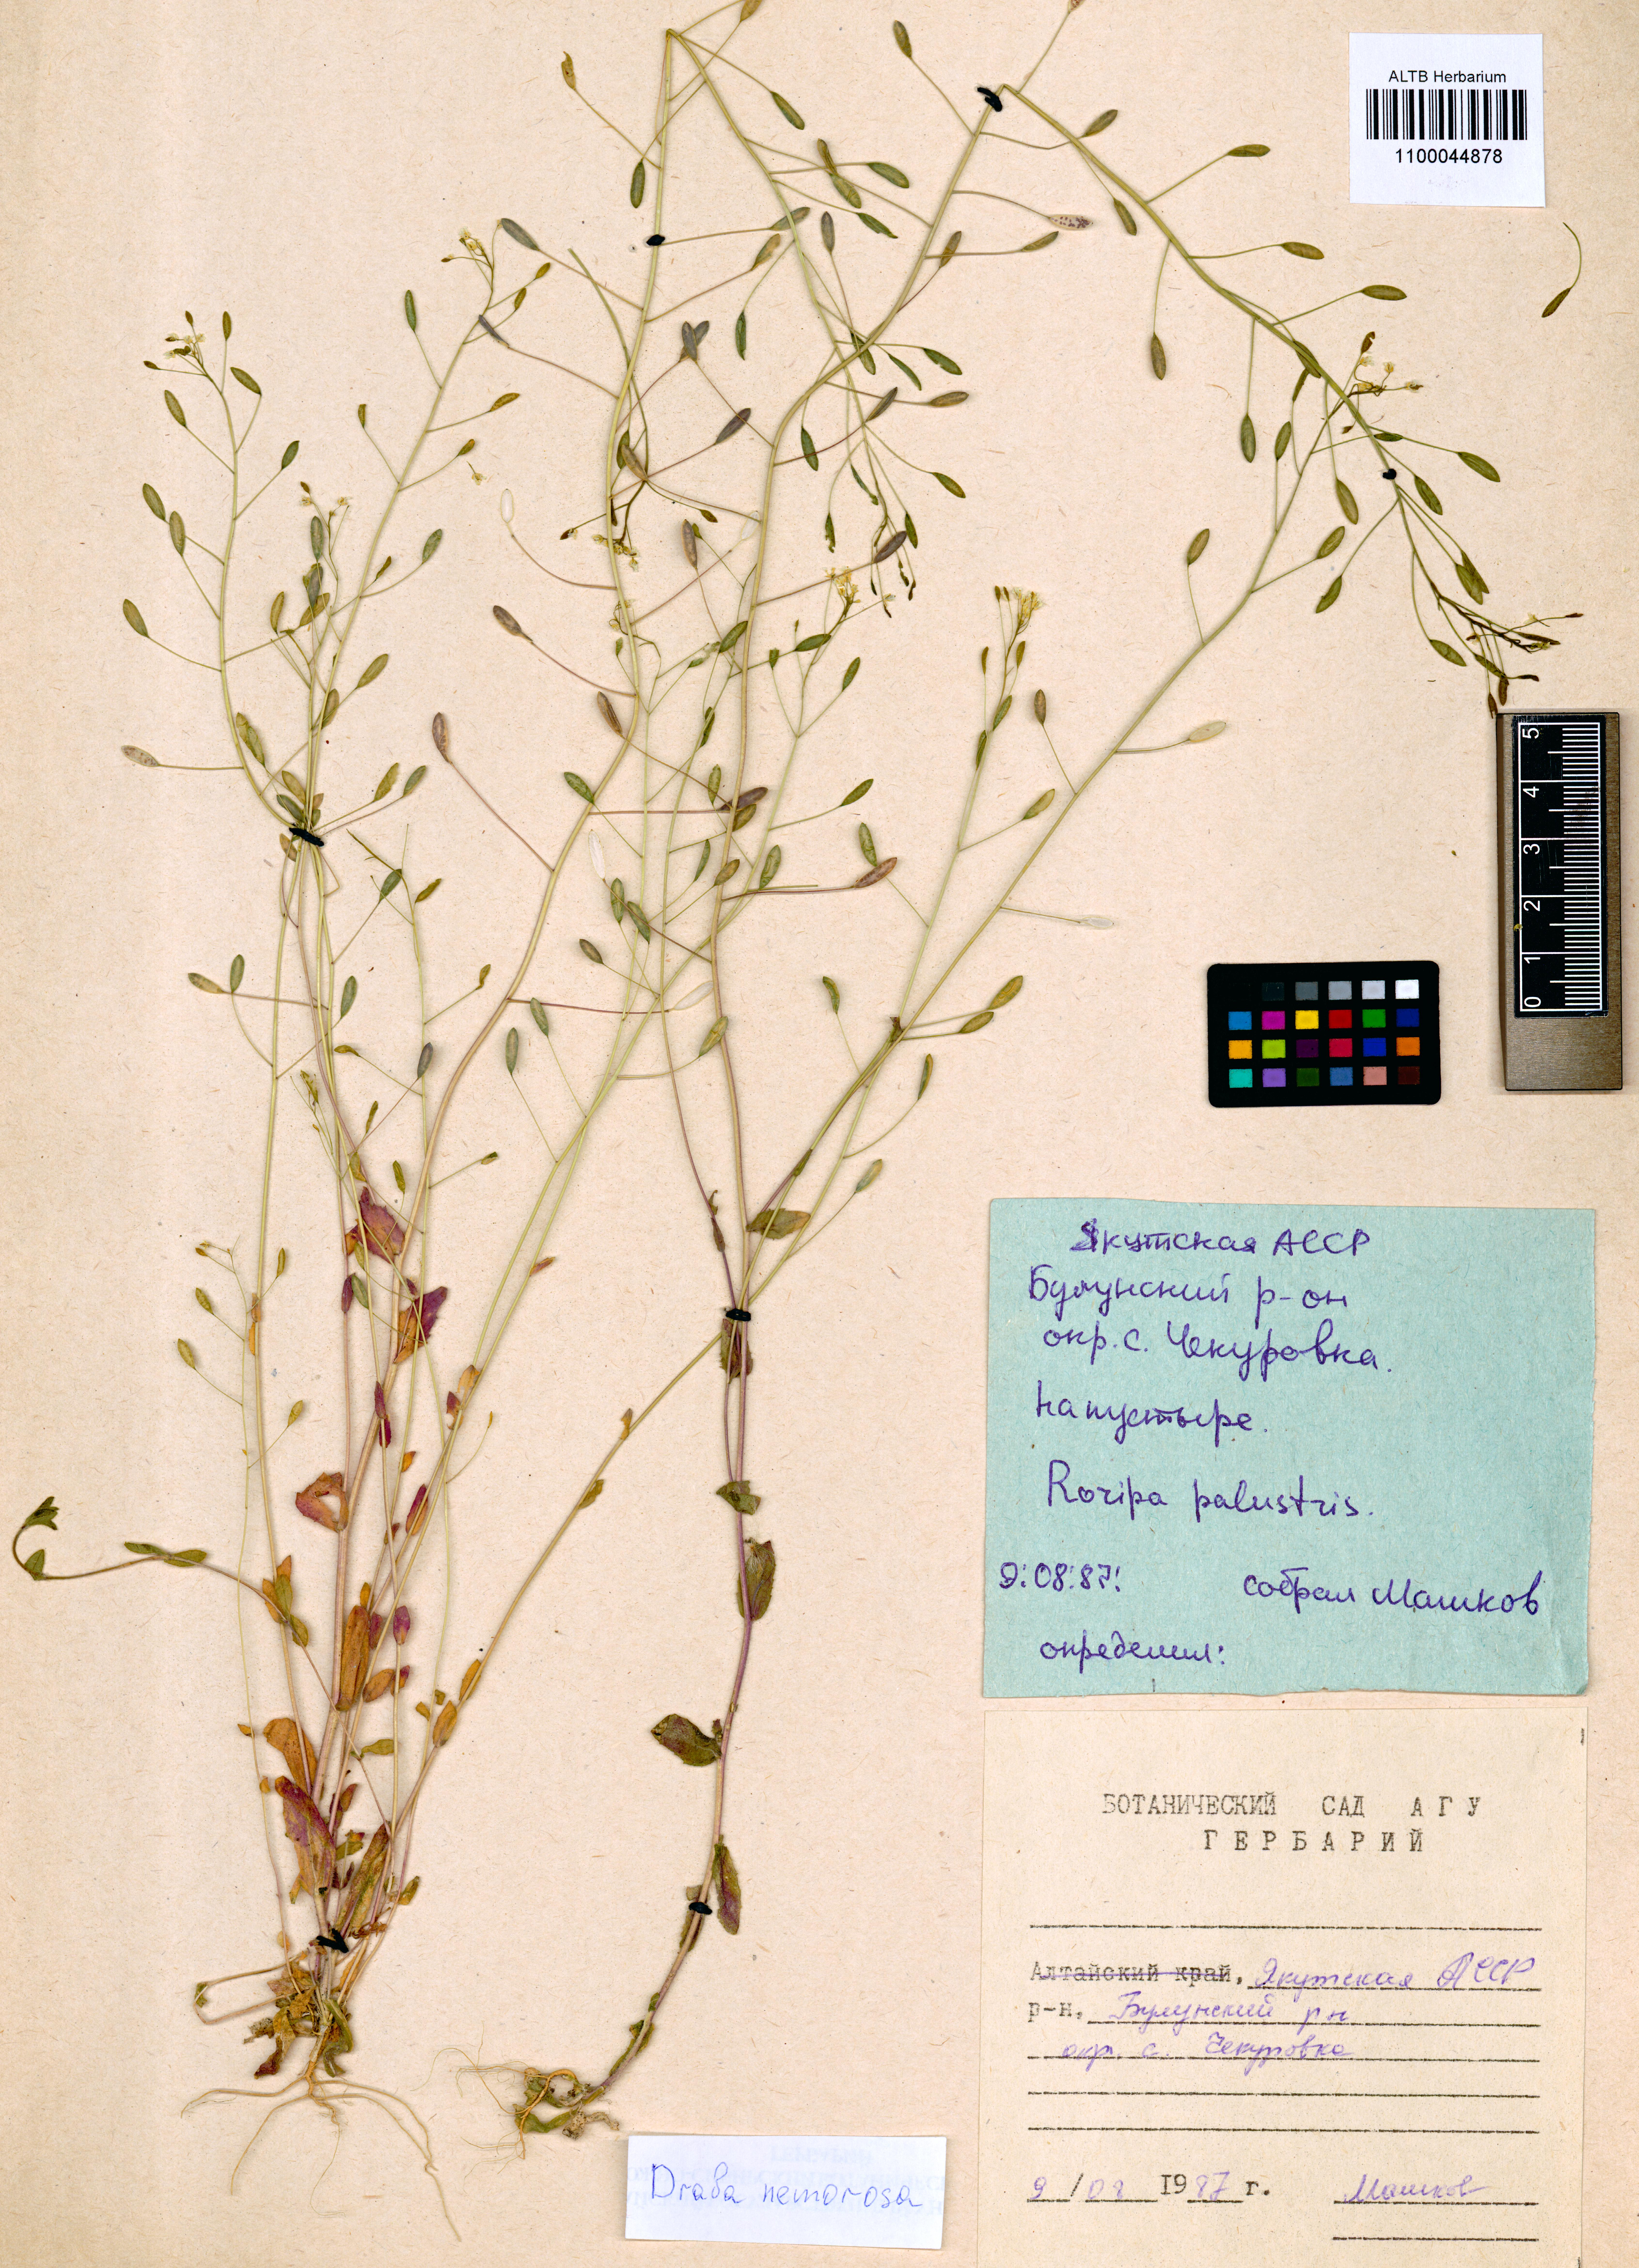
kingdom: Plantae
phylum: Tracheophyta
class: Magnoliopsida
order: Brassicales
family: Brassicaceae
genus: Draba
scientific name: Draba nemorosa
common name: Wood whitlow-grass
